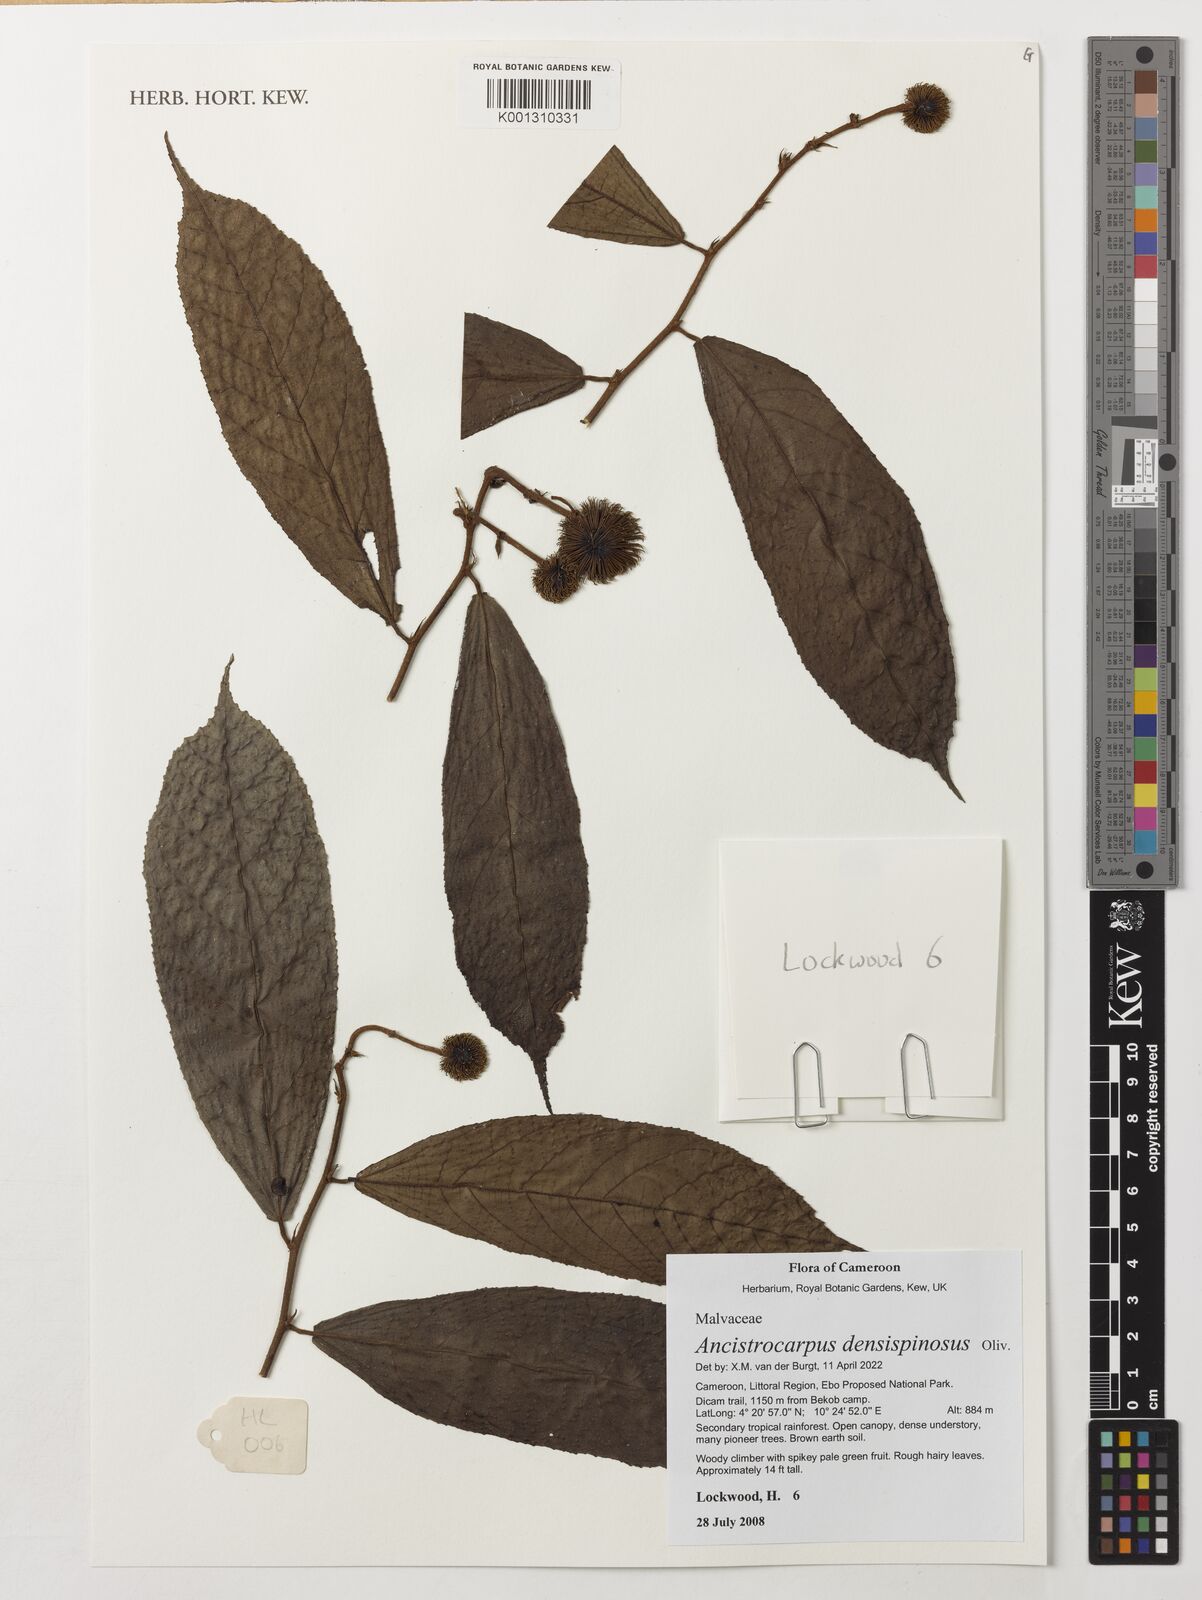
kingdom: Plantae
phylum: Tracheophyta
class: Magnoliopsida
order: Malvales
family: Malvaceae
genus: Ancistrocarpus
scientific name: Ancistrocarpus densispinosus
